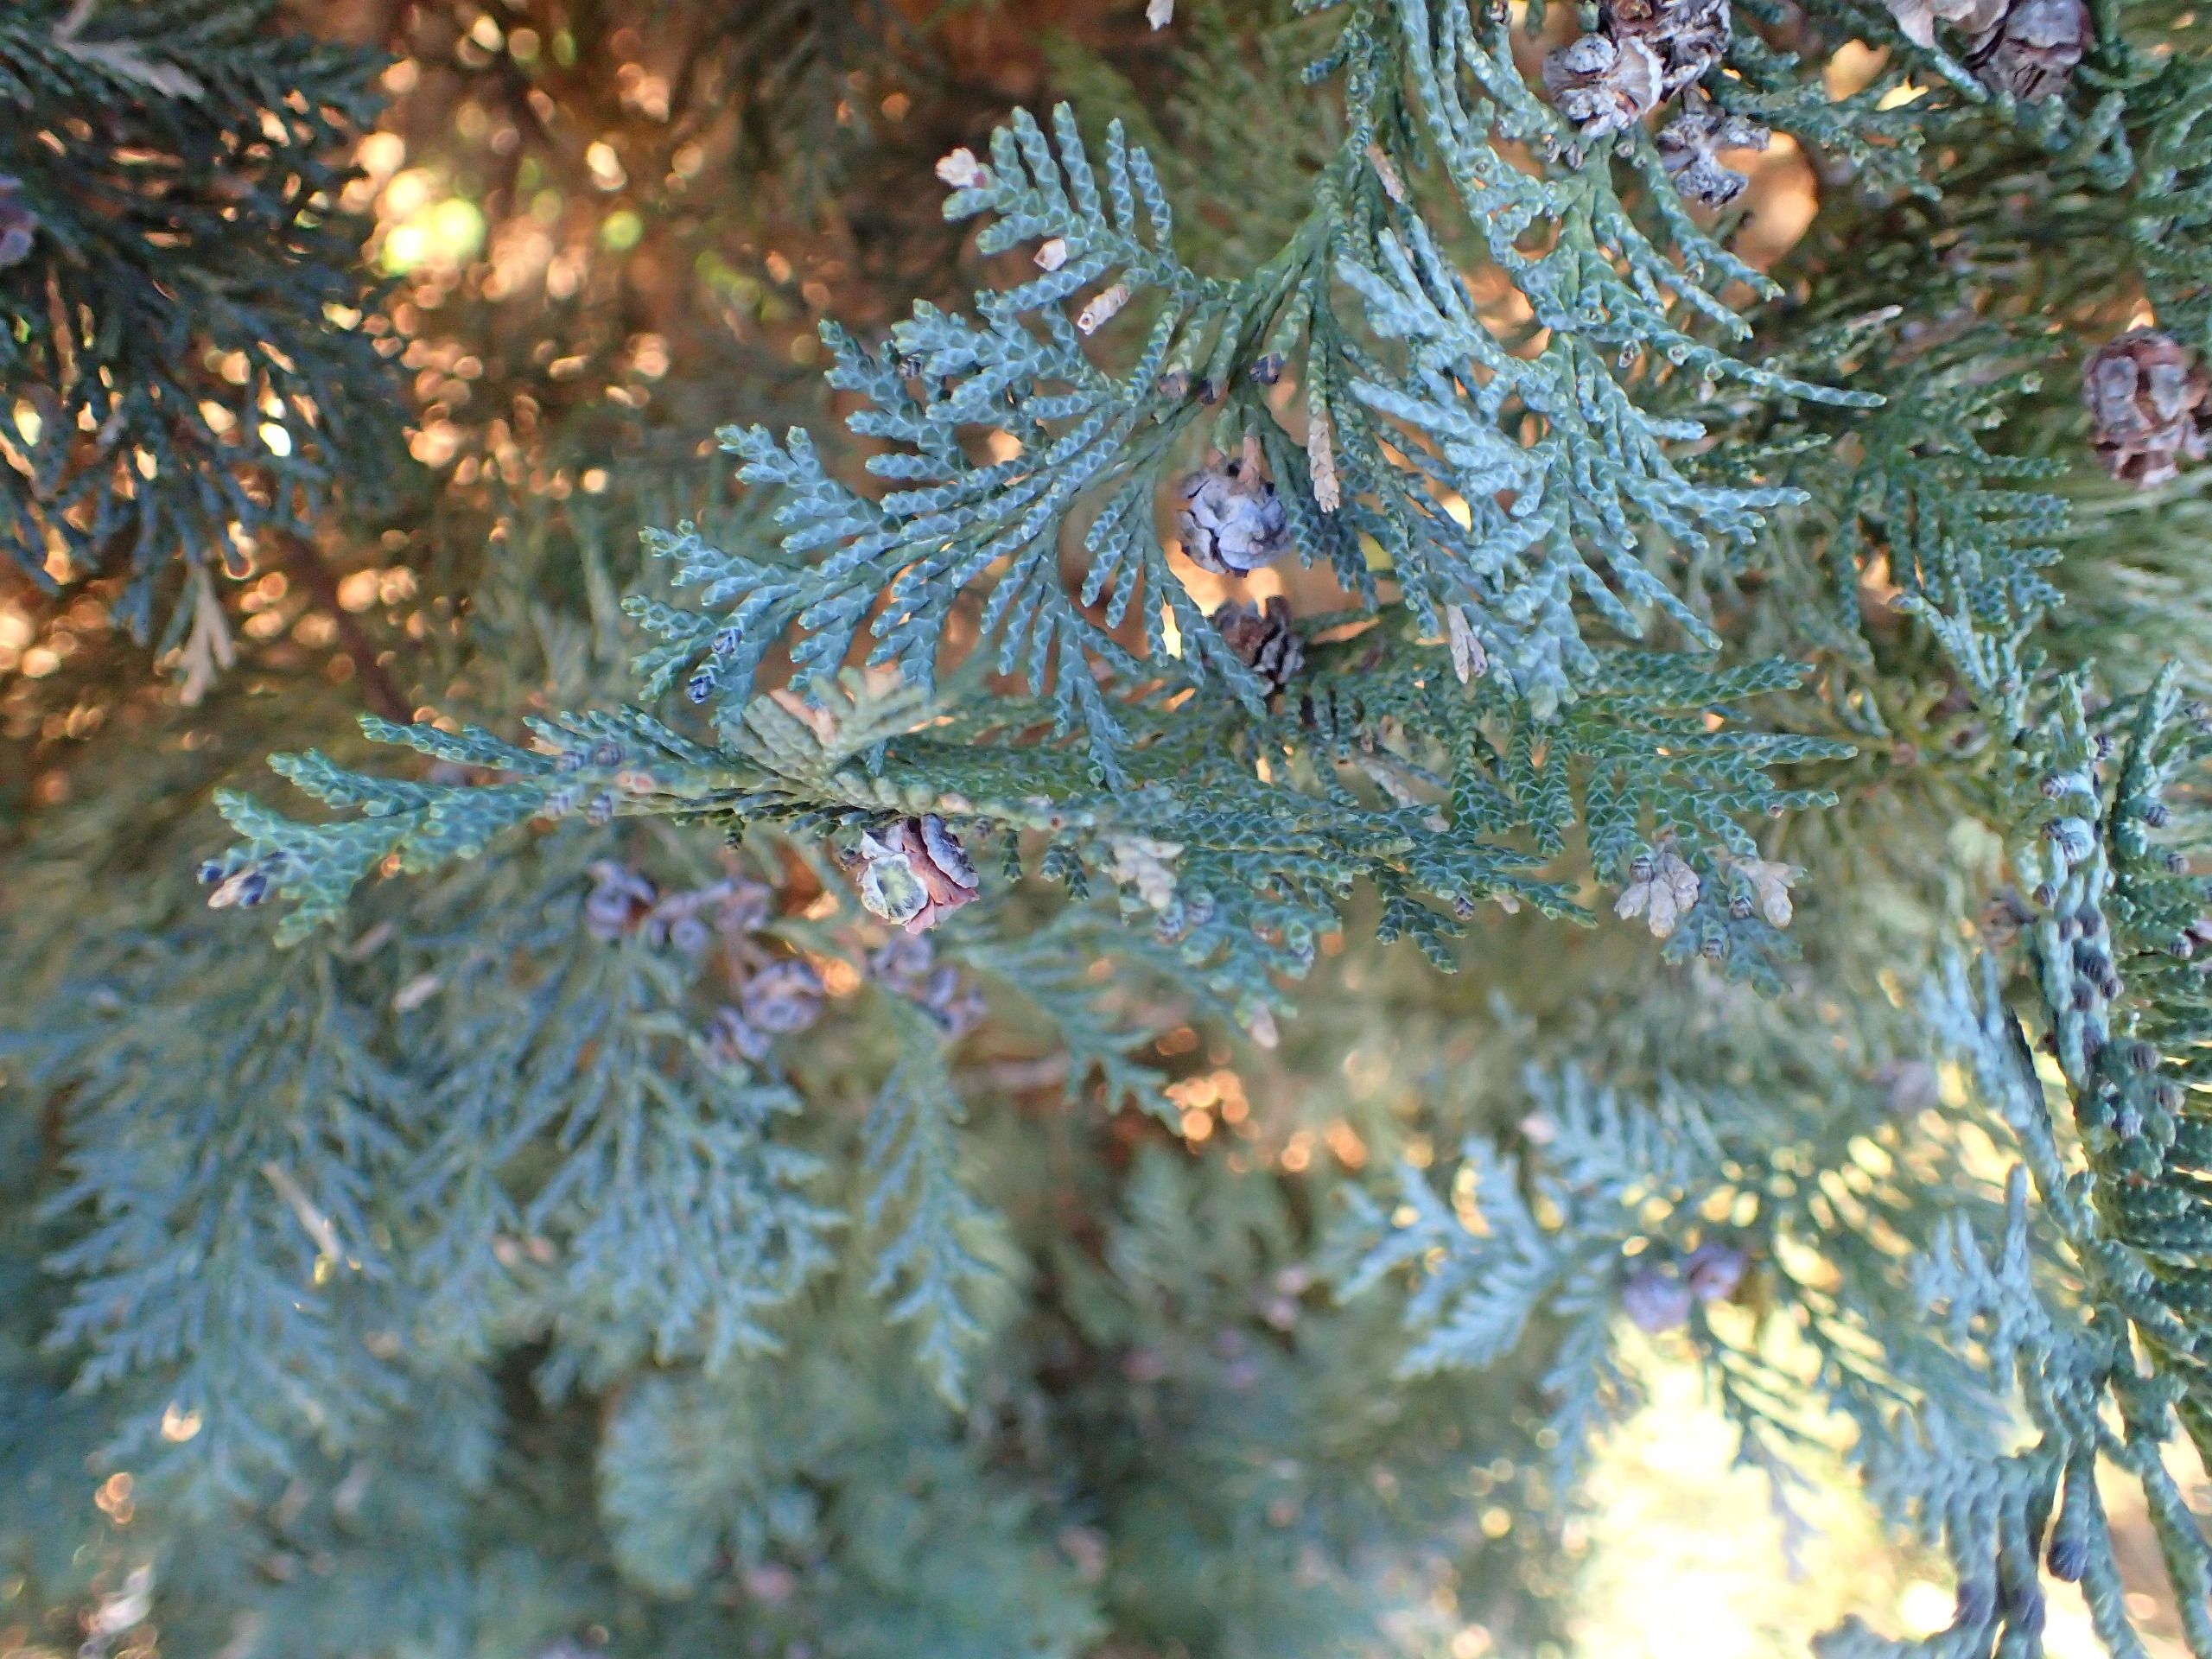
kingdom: Plantae
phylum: Tracheophyta
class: Pinopsida
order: Pinales
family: Cupressaceae
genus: Cupressus
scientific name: Cupressus
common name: Cypresslægten
